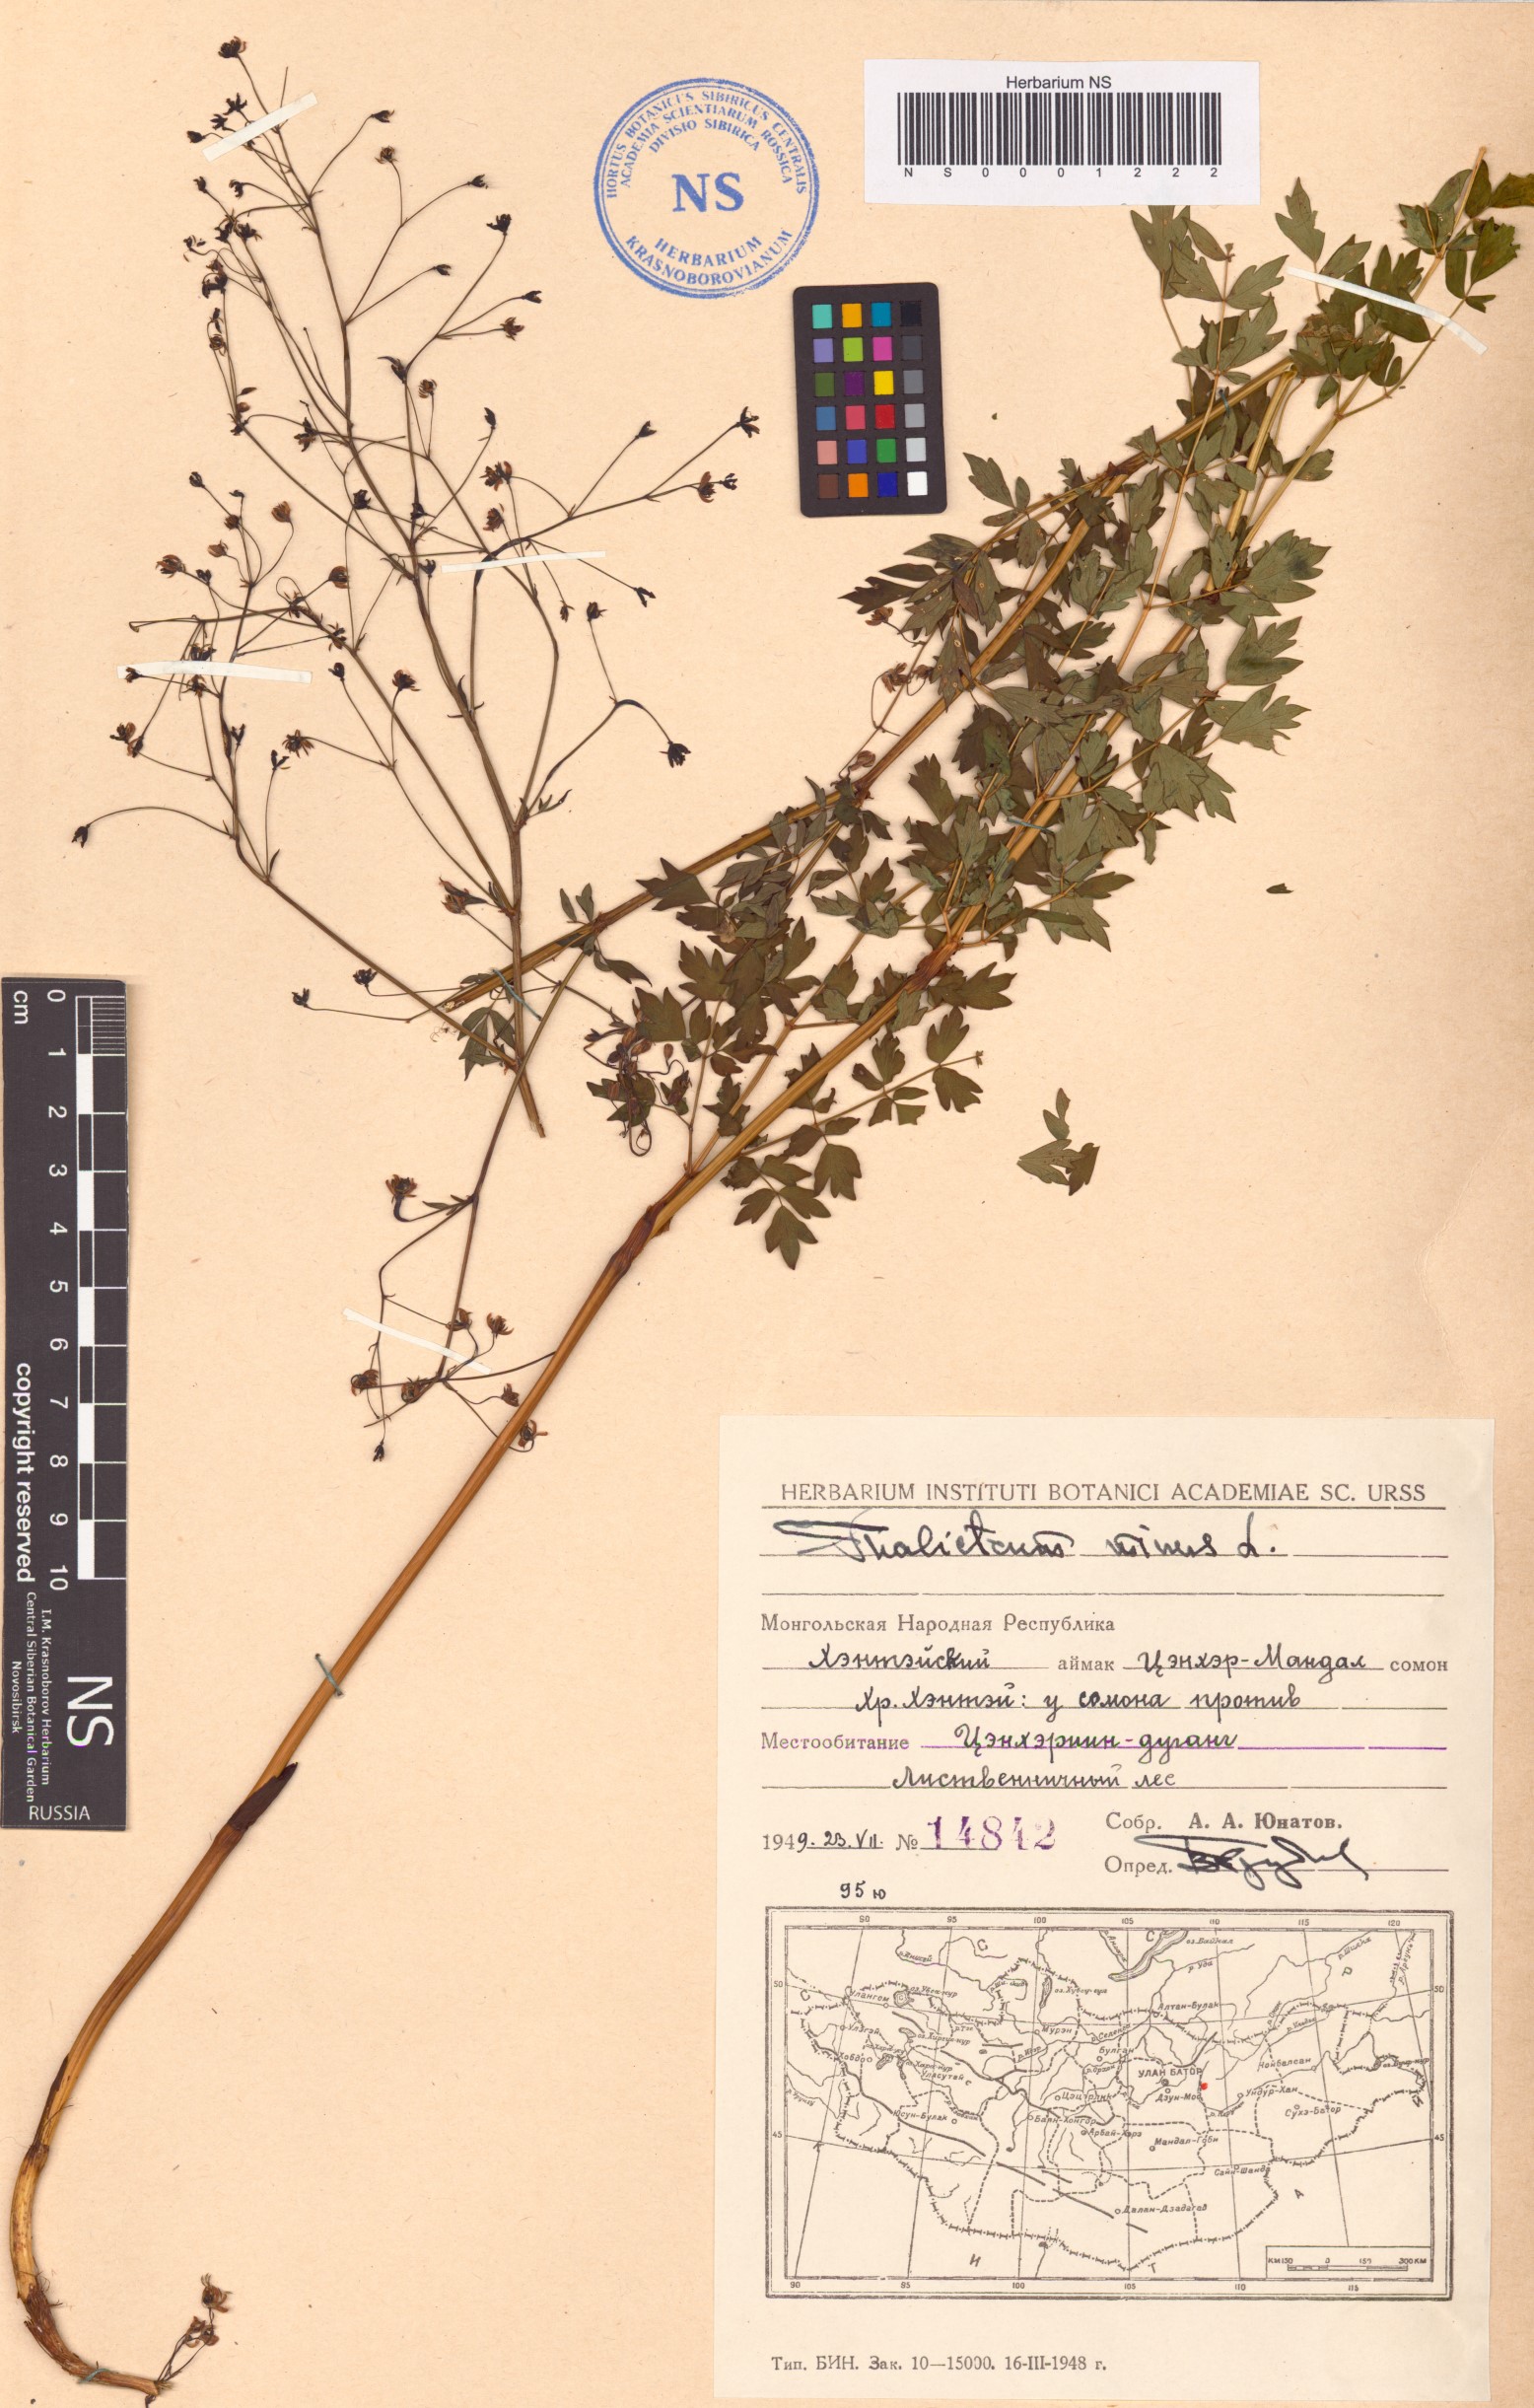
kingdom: Plantae
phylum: Tracheophyta
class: Magnoliopsida
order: Ranunculales
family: Ranunculaceae
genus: Thalictrum
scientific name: Thalictrum minus
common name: Lesser meadow-rue
